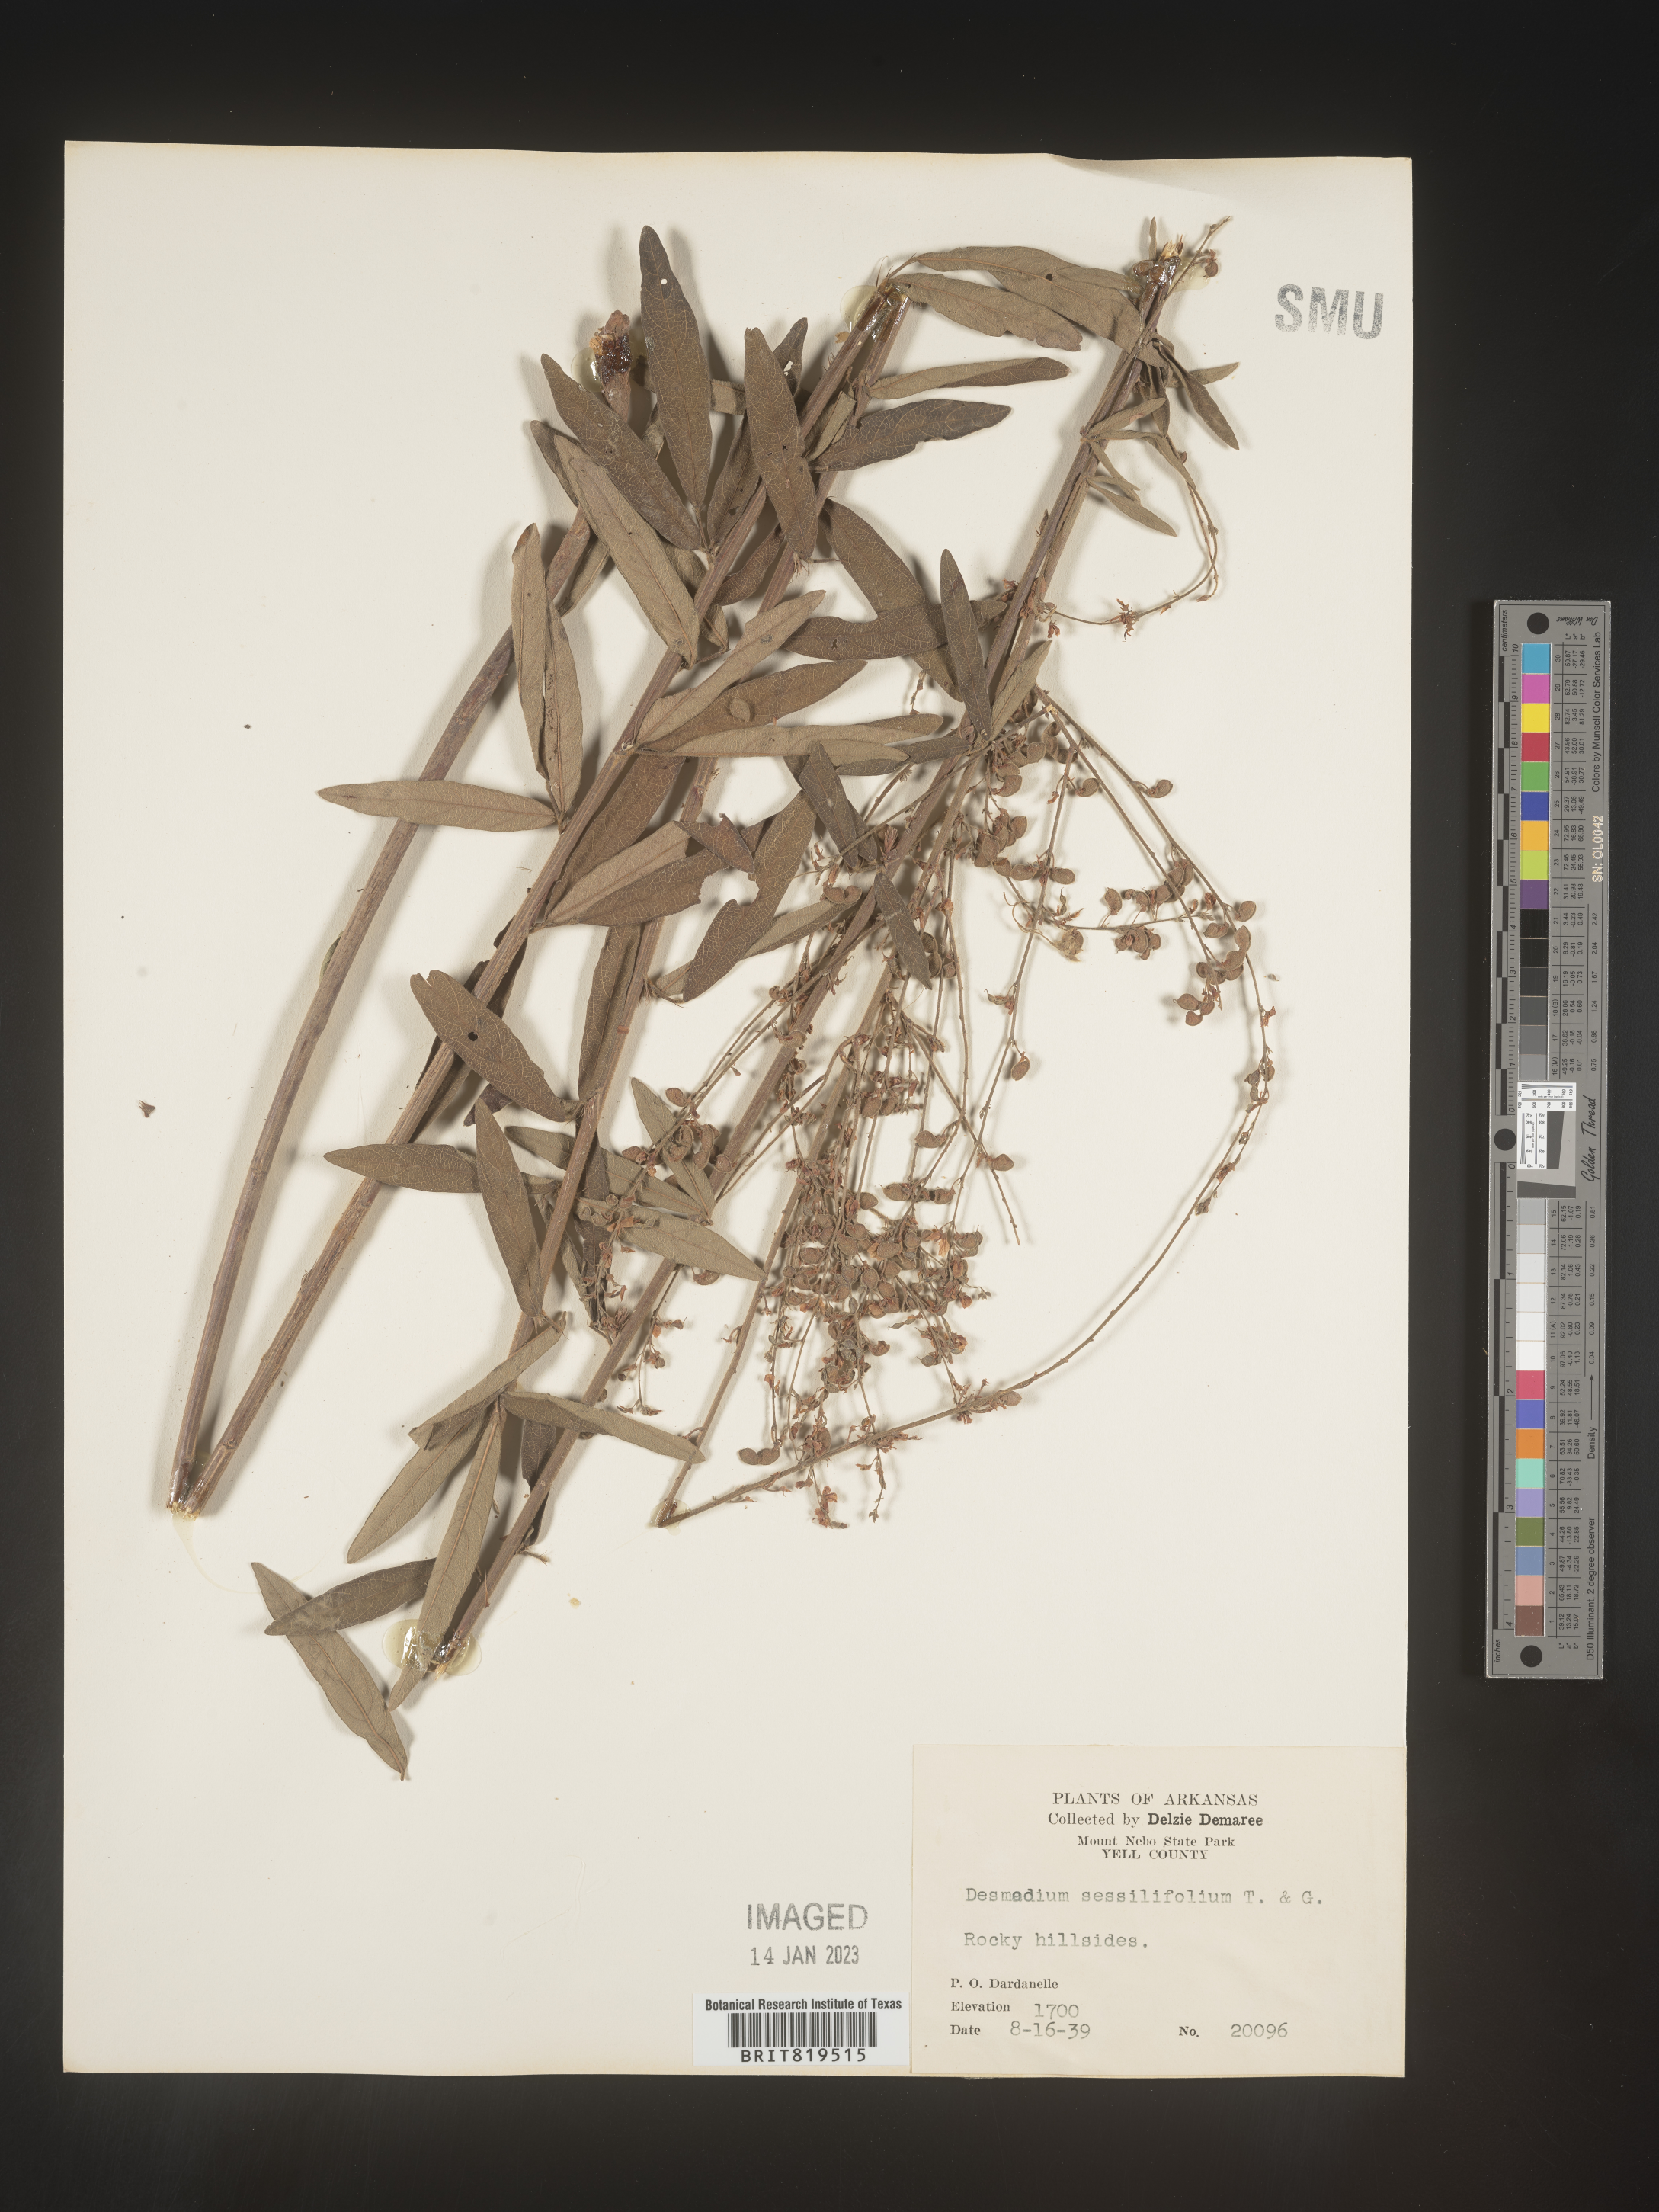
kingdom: Plantae
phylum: Tracheophyta
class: Magnoliopsida
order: Fabales
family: Fabaceae
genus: Desmodium
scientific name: Desmodium sessilifolium
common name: Sessile tick-clover
